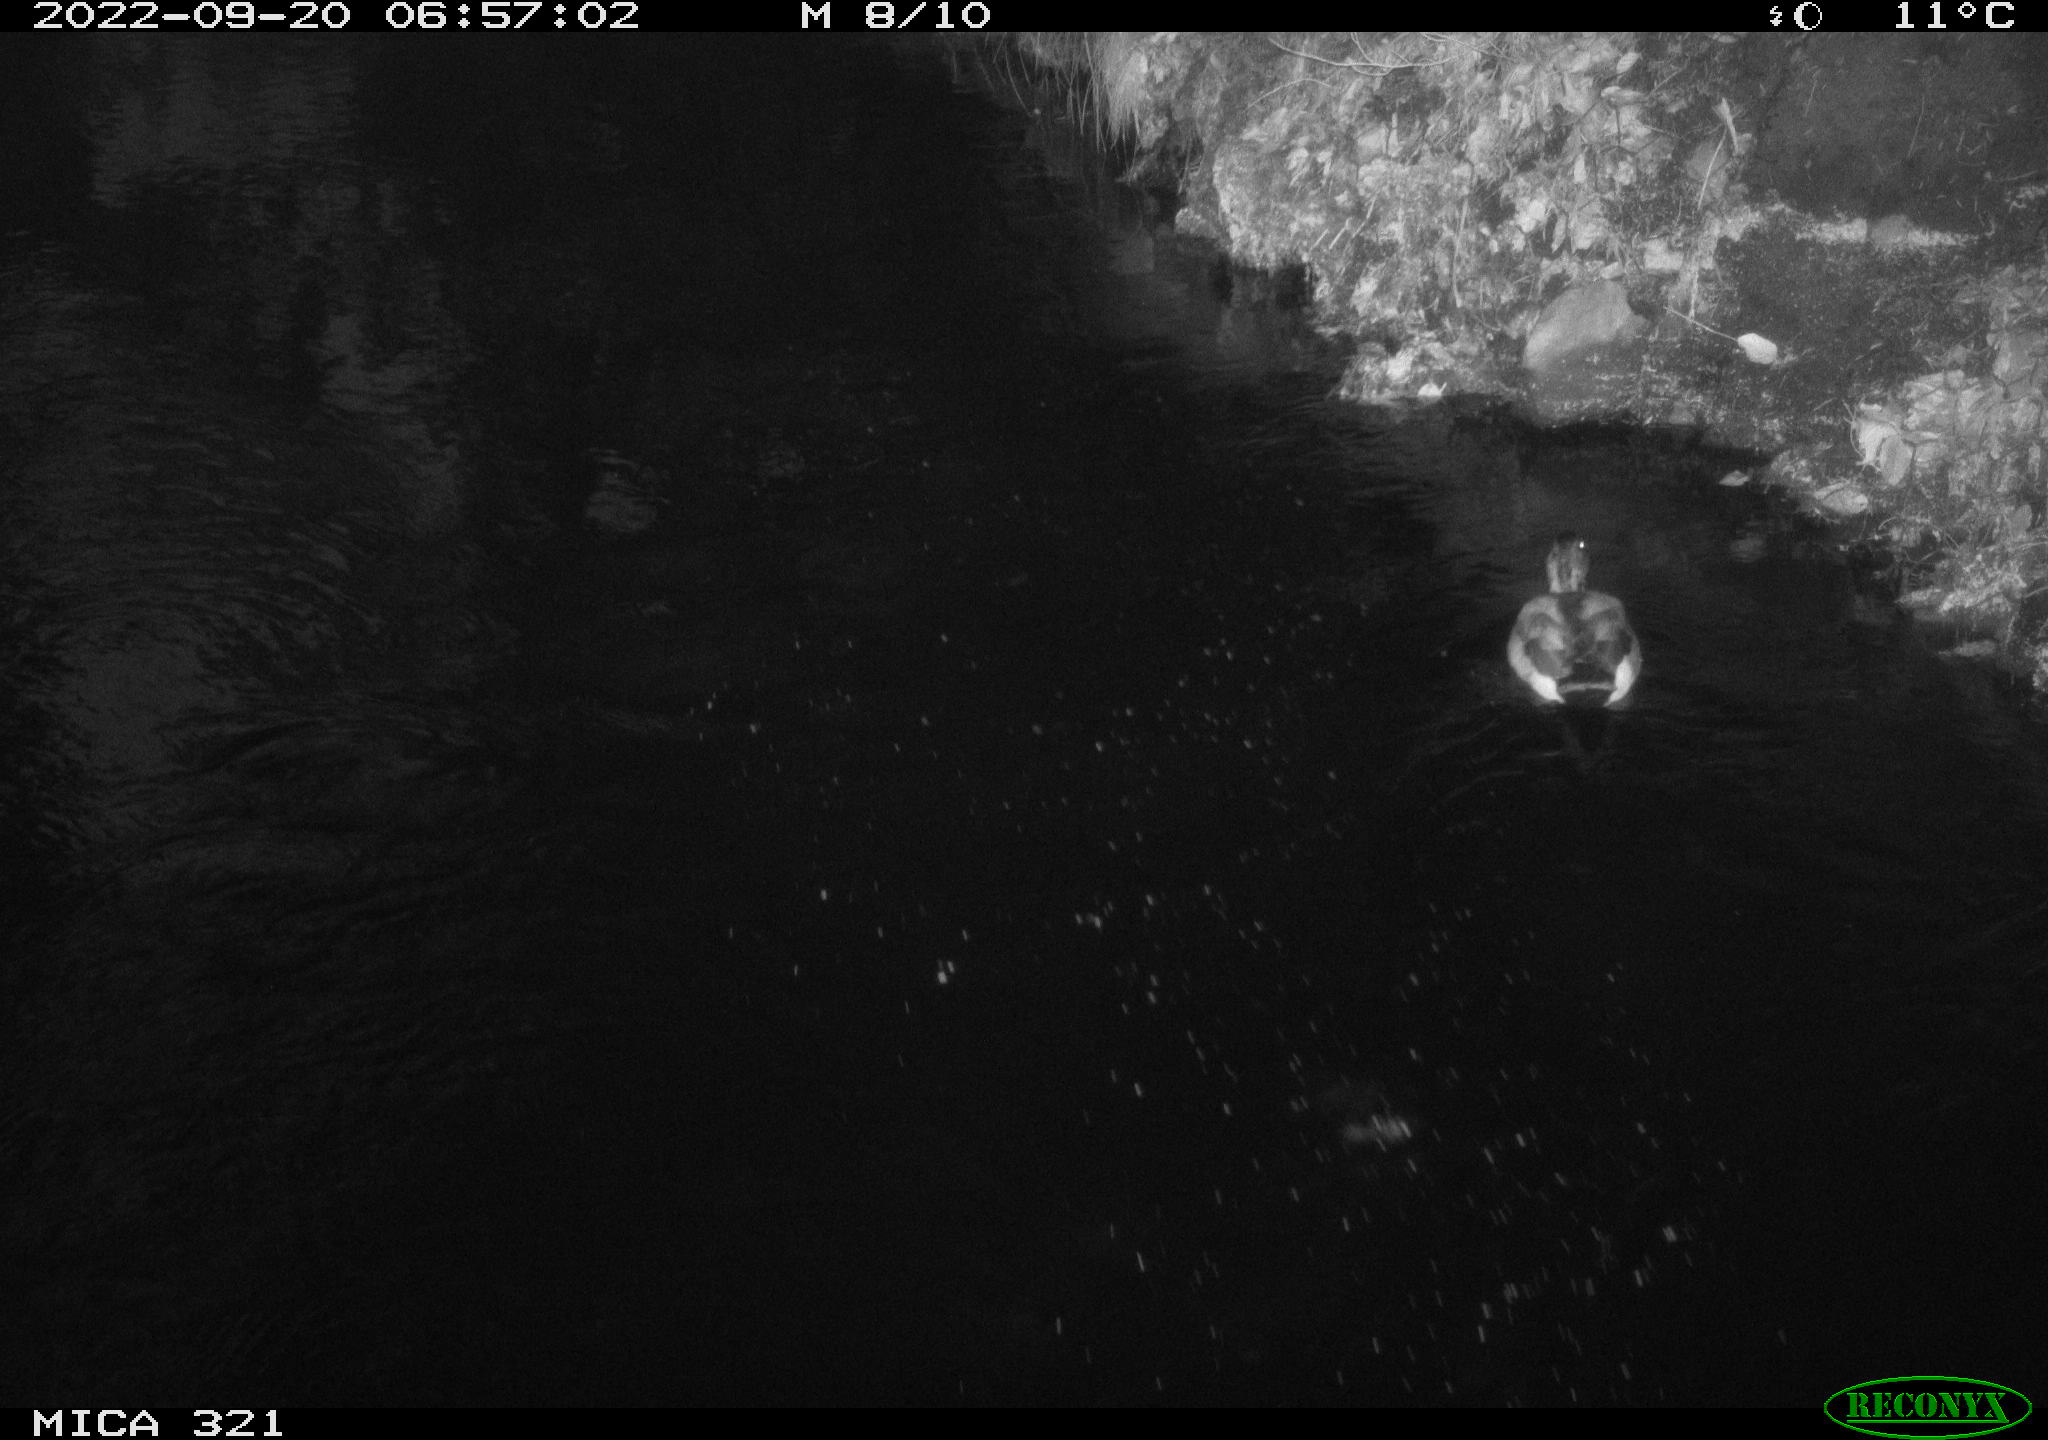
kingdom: Animalia
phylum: Chordata
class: Aves
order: Anseriformes
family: Anatidae
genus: Anas
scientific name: Anas
